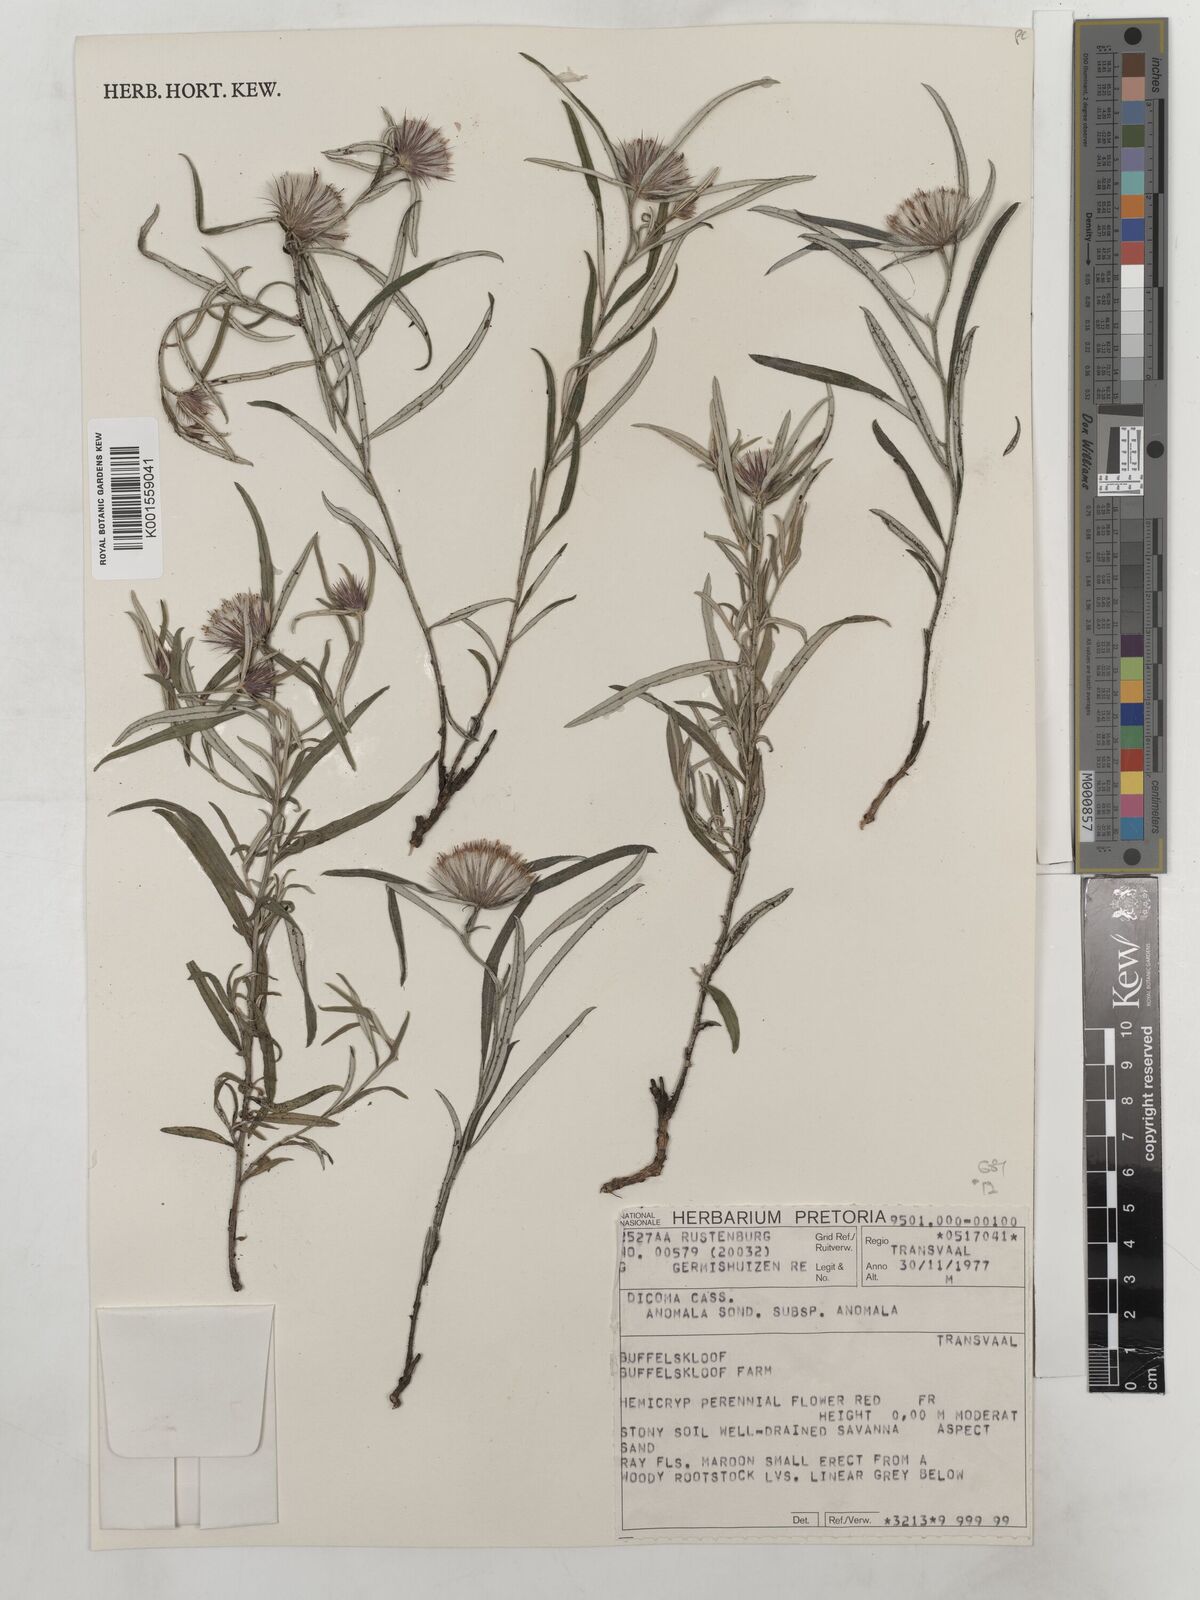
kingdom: Plantae
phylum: Tracheophyta
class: Magnoliopsida
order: Asterales
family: Asteraceae
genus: Dicoma
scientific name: Dicoma anomala
